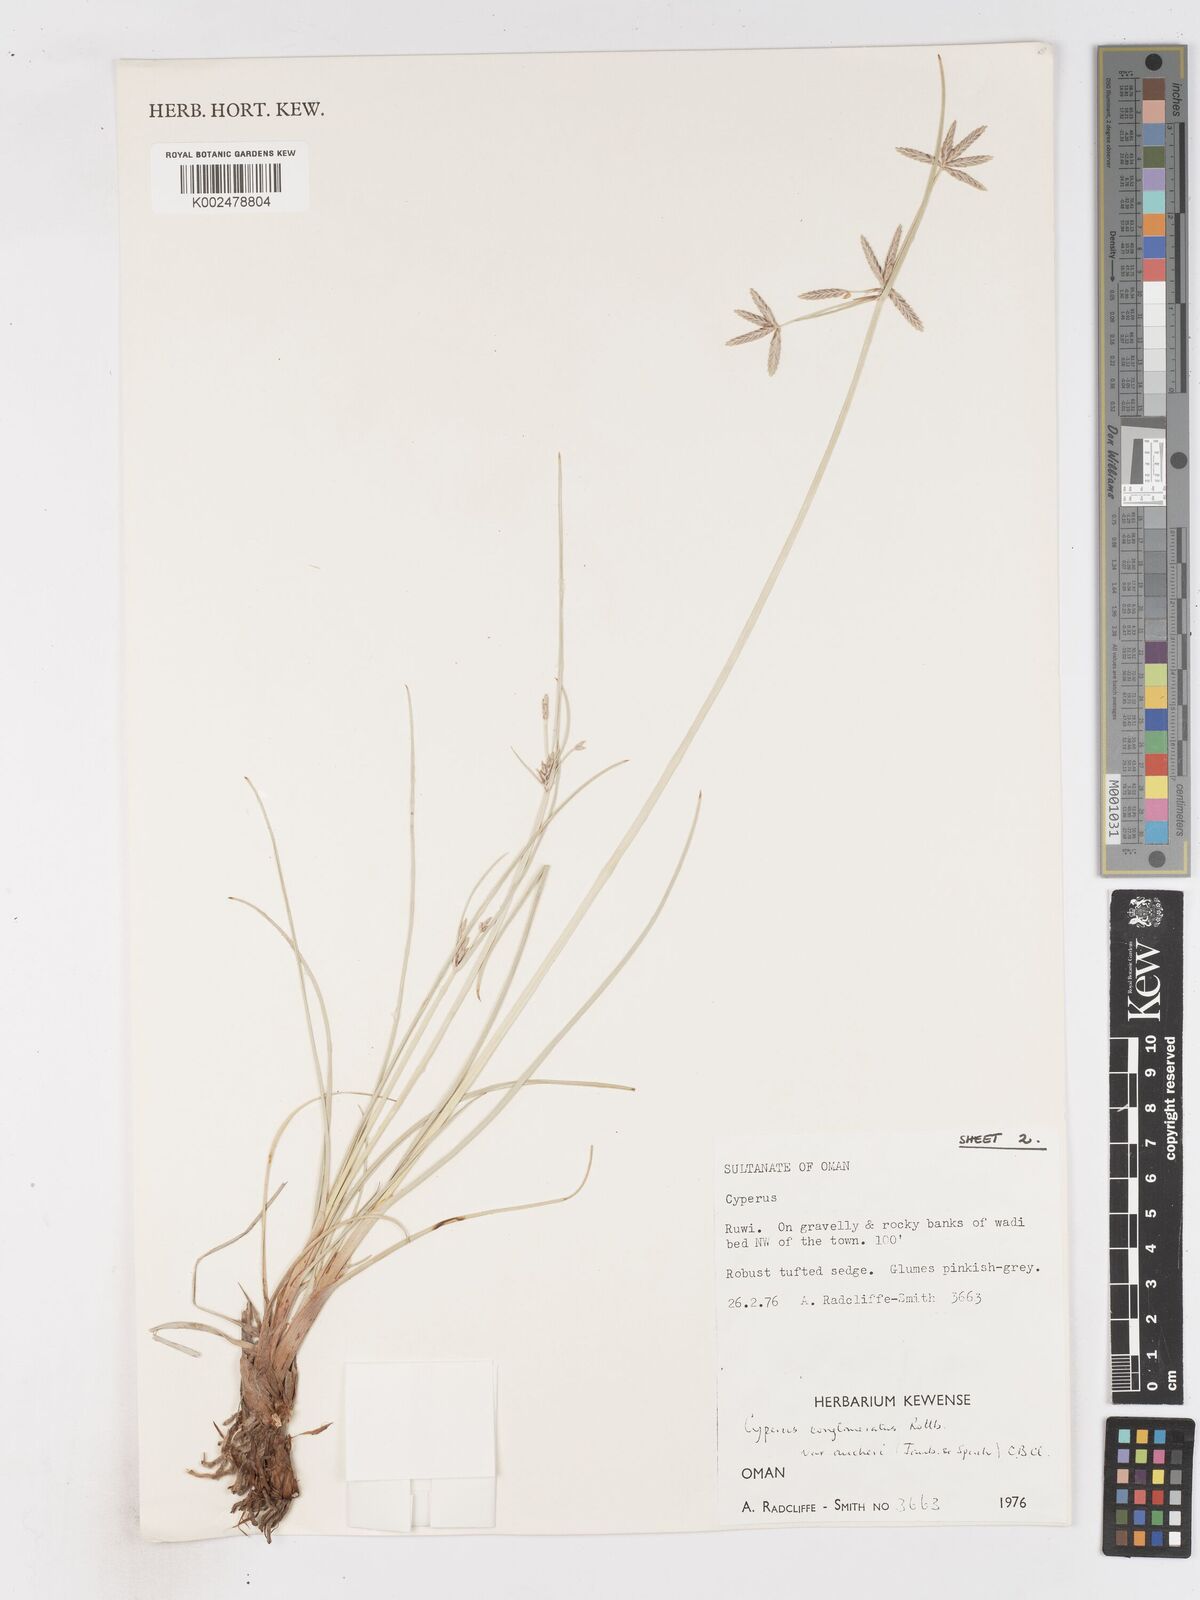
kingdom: Plantae
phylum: Tracheophyta
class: Liliopsida
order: Poales
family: Cyperaceae
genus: Cyperus
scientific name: Cyperus aucheri
